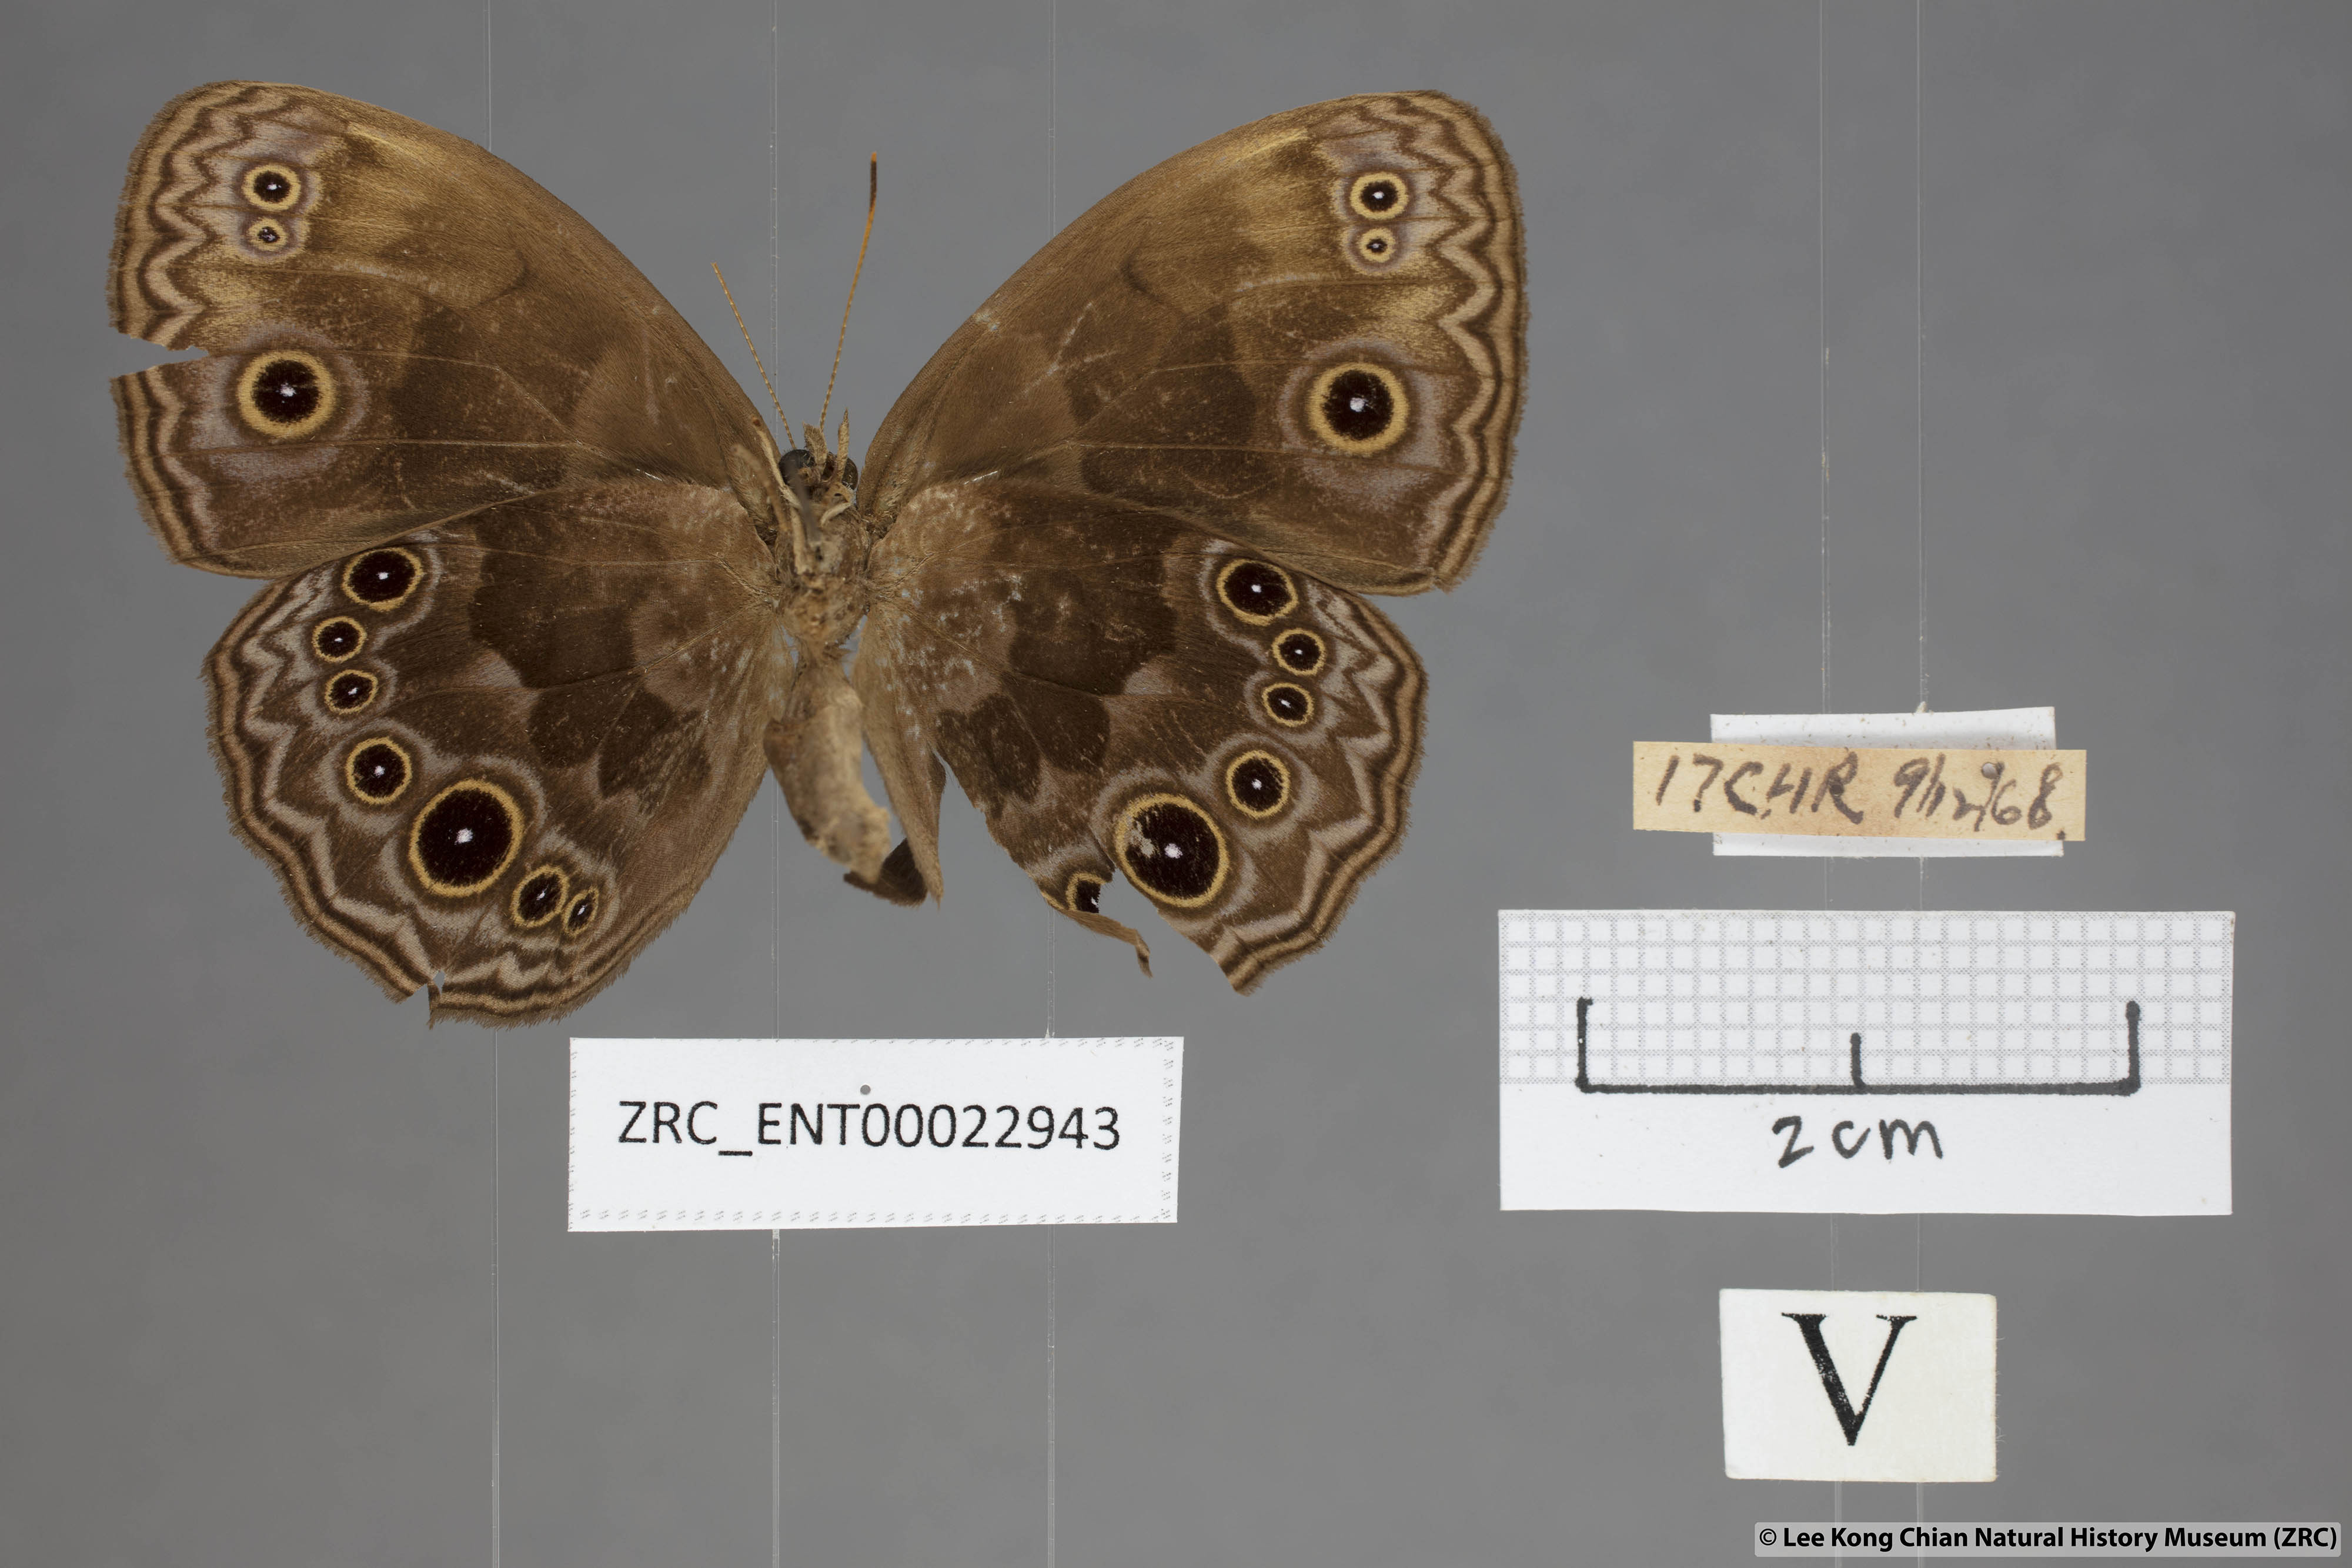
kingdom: Animalia
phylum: Arthropoda
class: Insecta
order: Lepidoptera
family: Nymphalidae
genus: Mycalesis
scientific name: Mycalesis maianeas
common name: Bandless bushbrown
